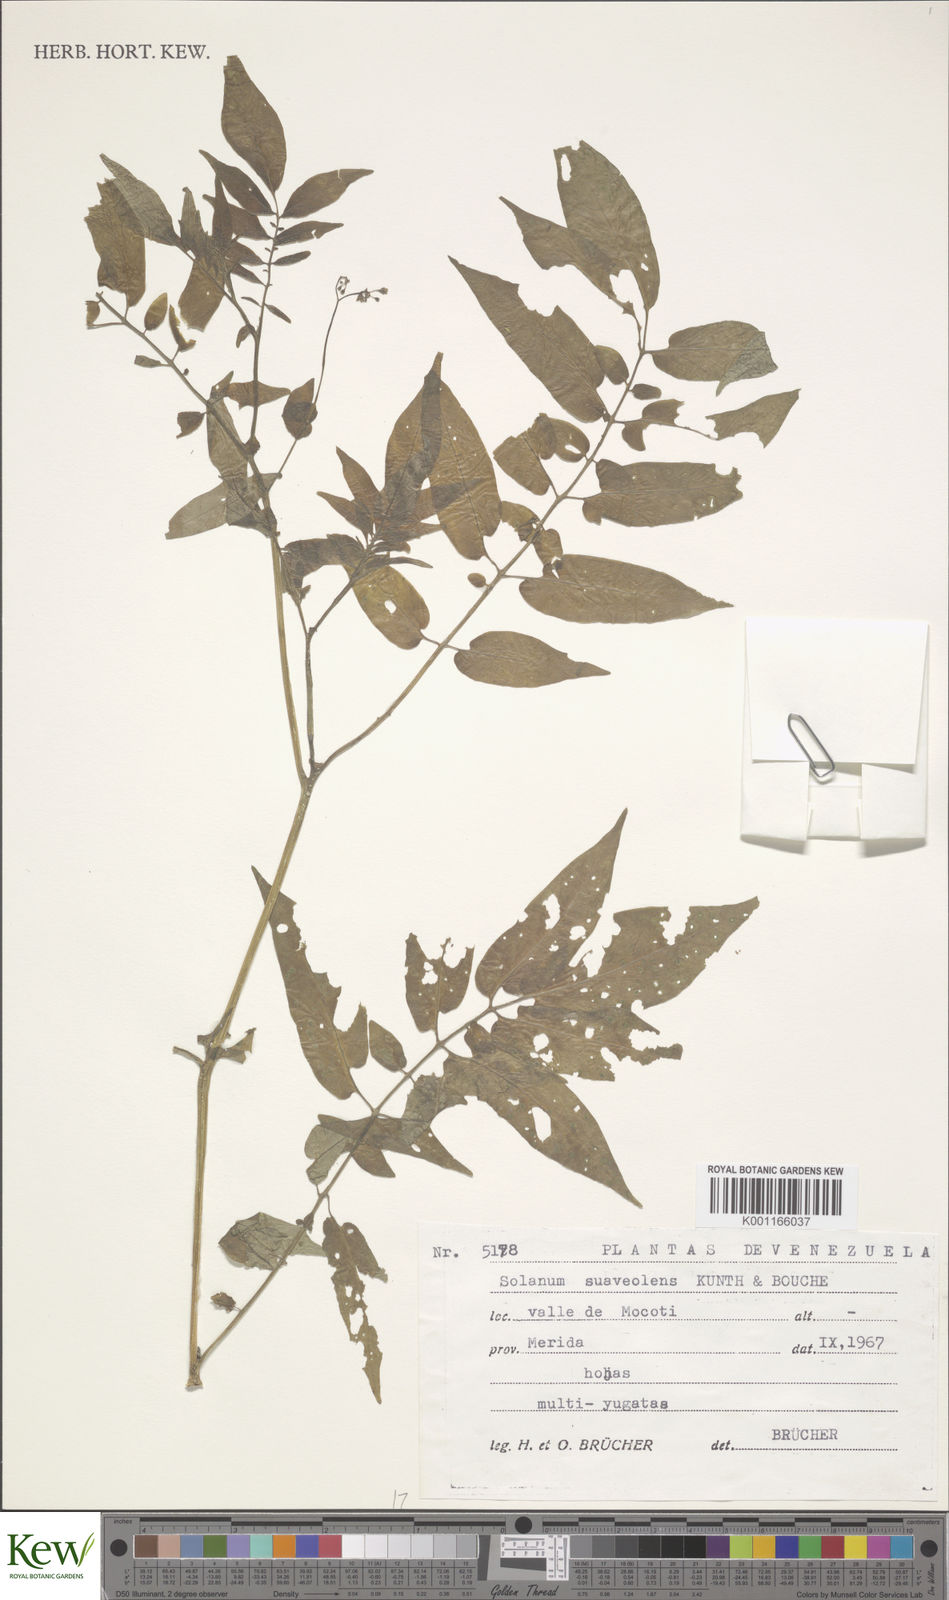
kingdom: Plantae
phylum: Tracheophyta
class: Magnoliopsida
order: Solanales
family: Solanaceae
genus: Solanum
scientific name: Solanum suaveolens
